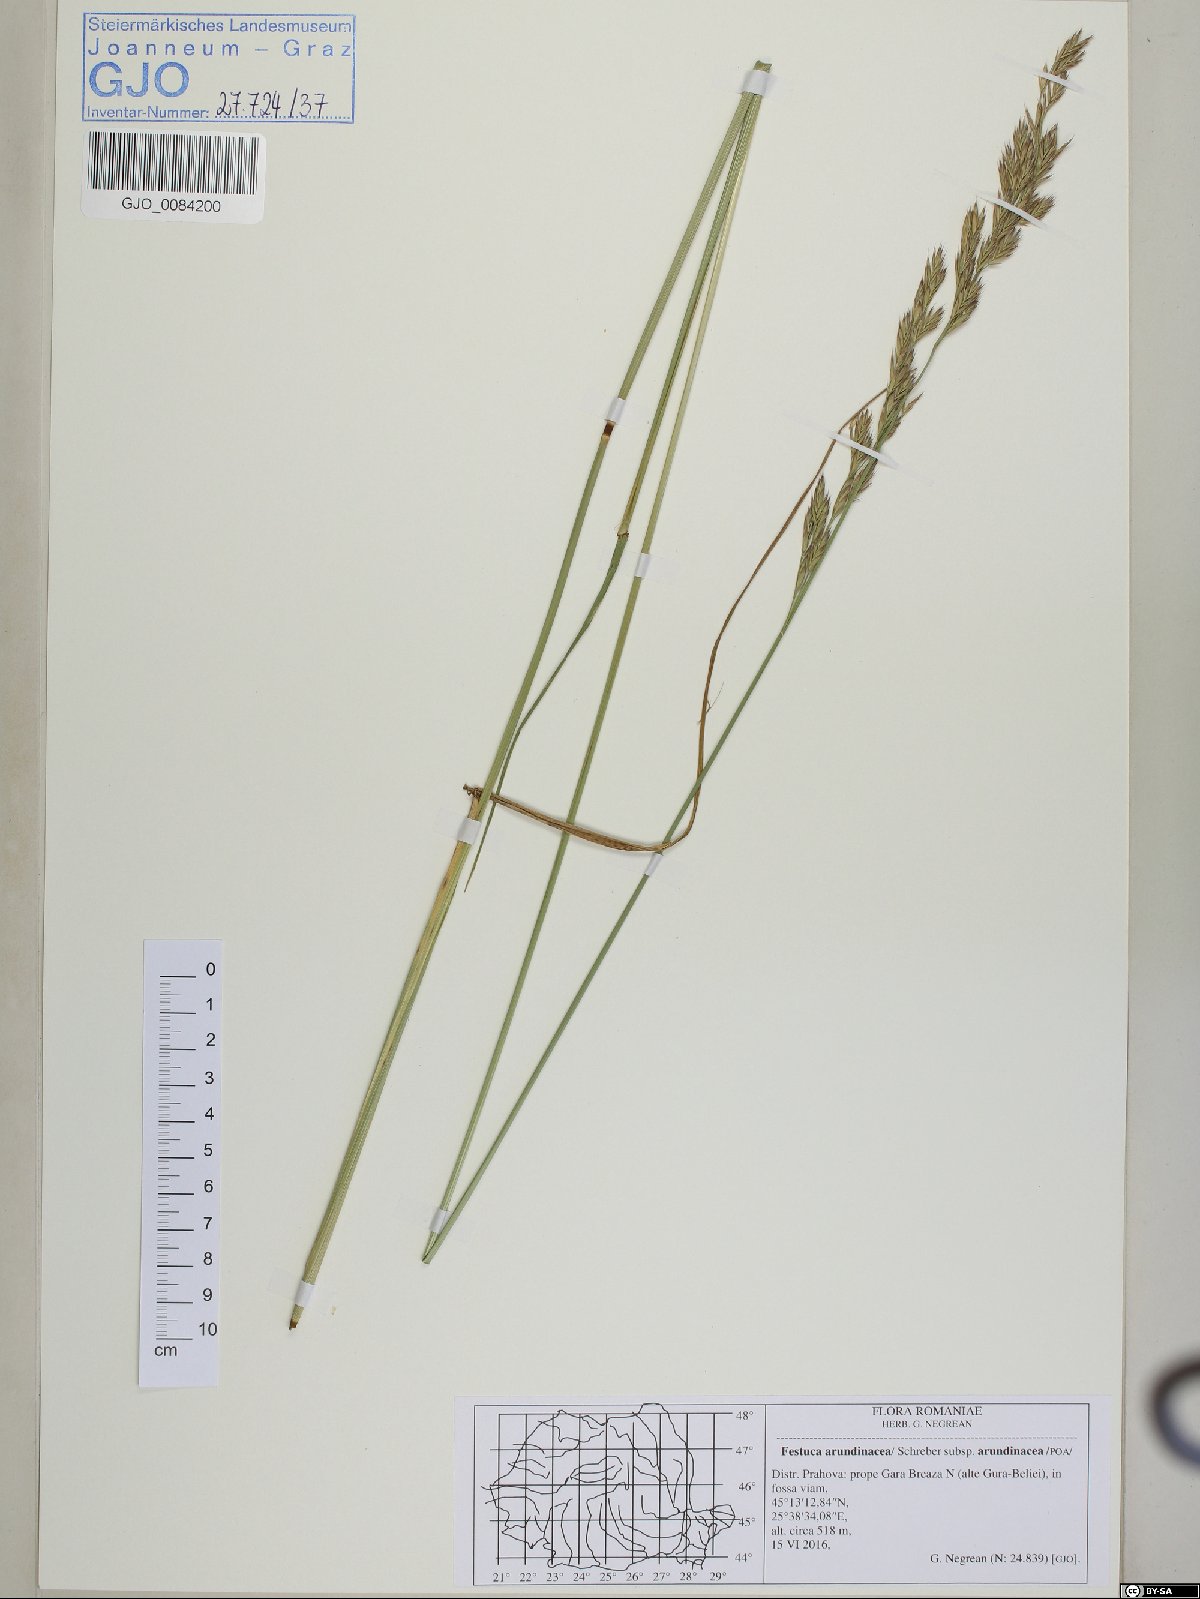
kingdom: Plantae
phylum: Tracheophyta
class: Liliopsida
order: Poales
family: Poaceae
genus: Lolium
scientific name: Lolium arundinaceum
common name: Reed fescue
